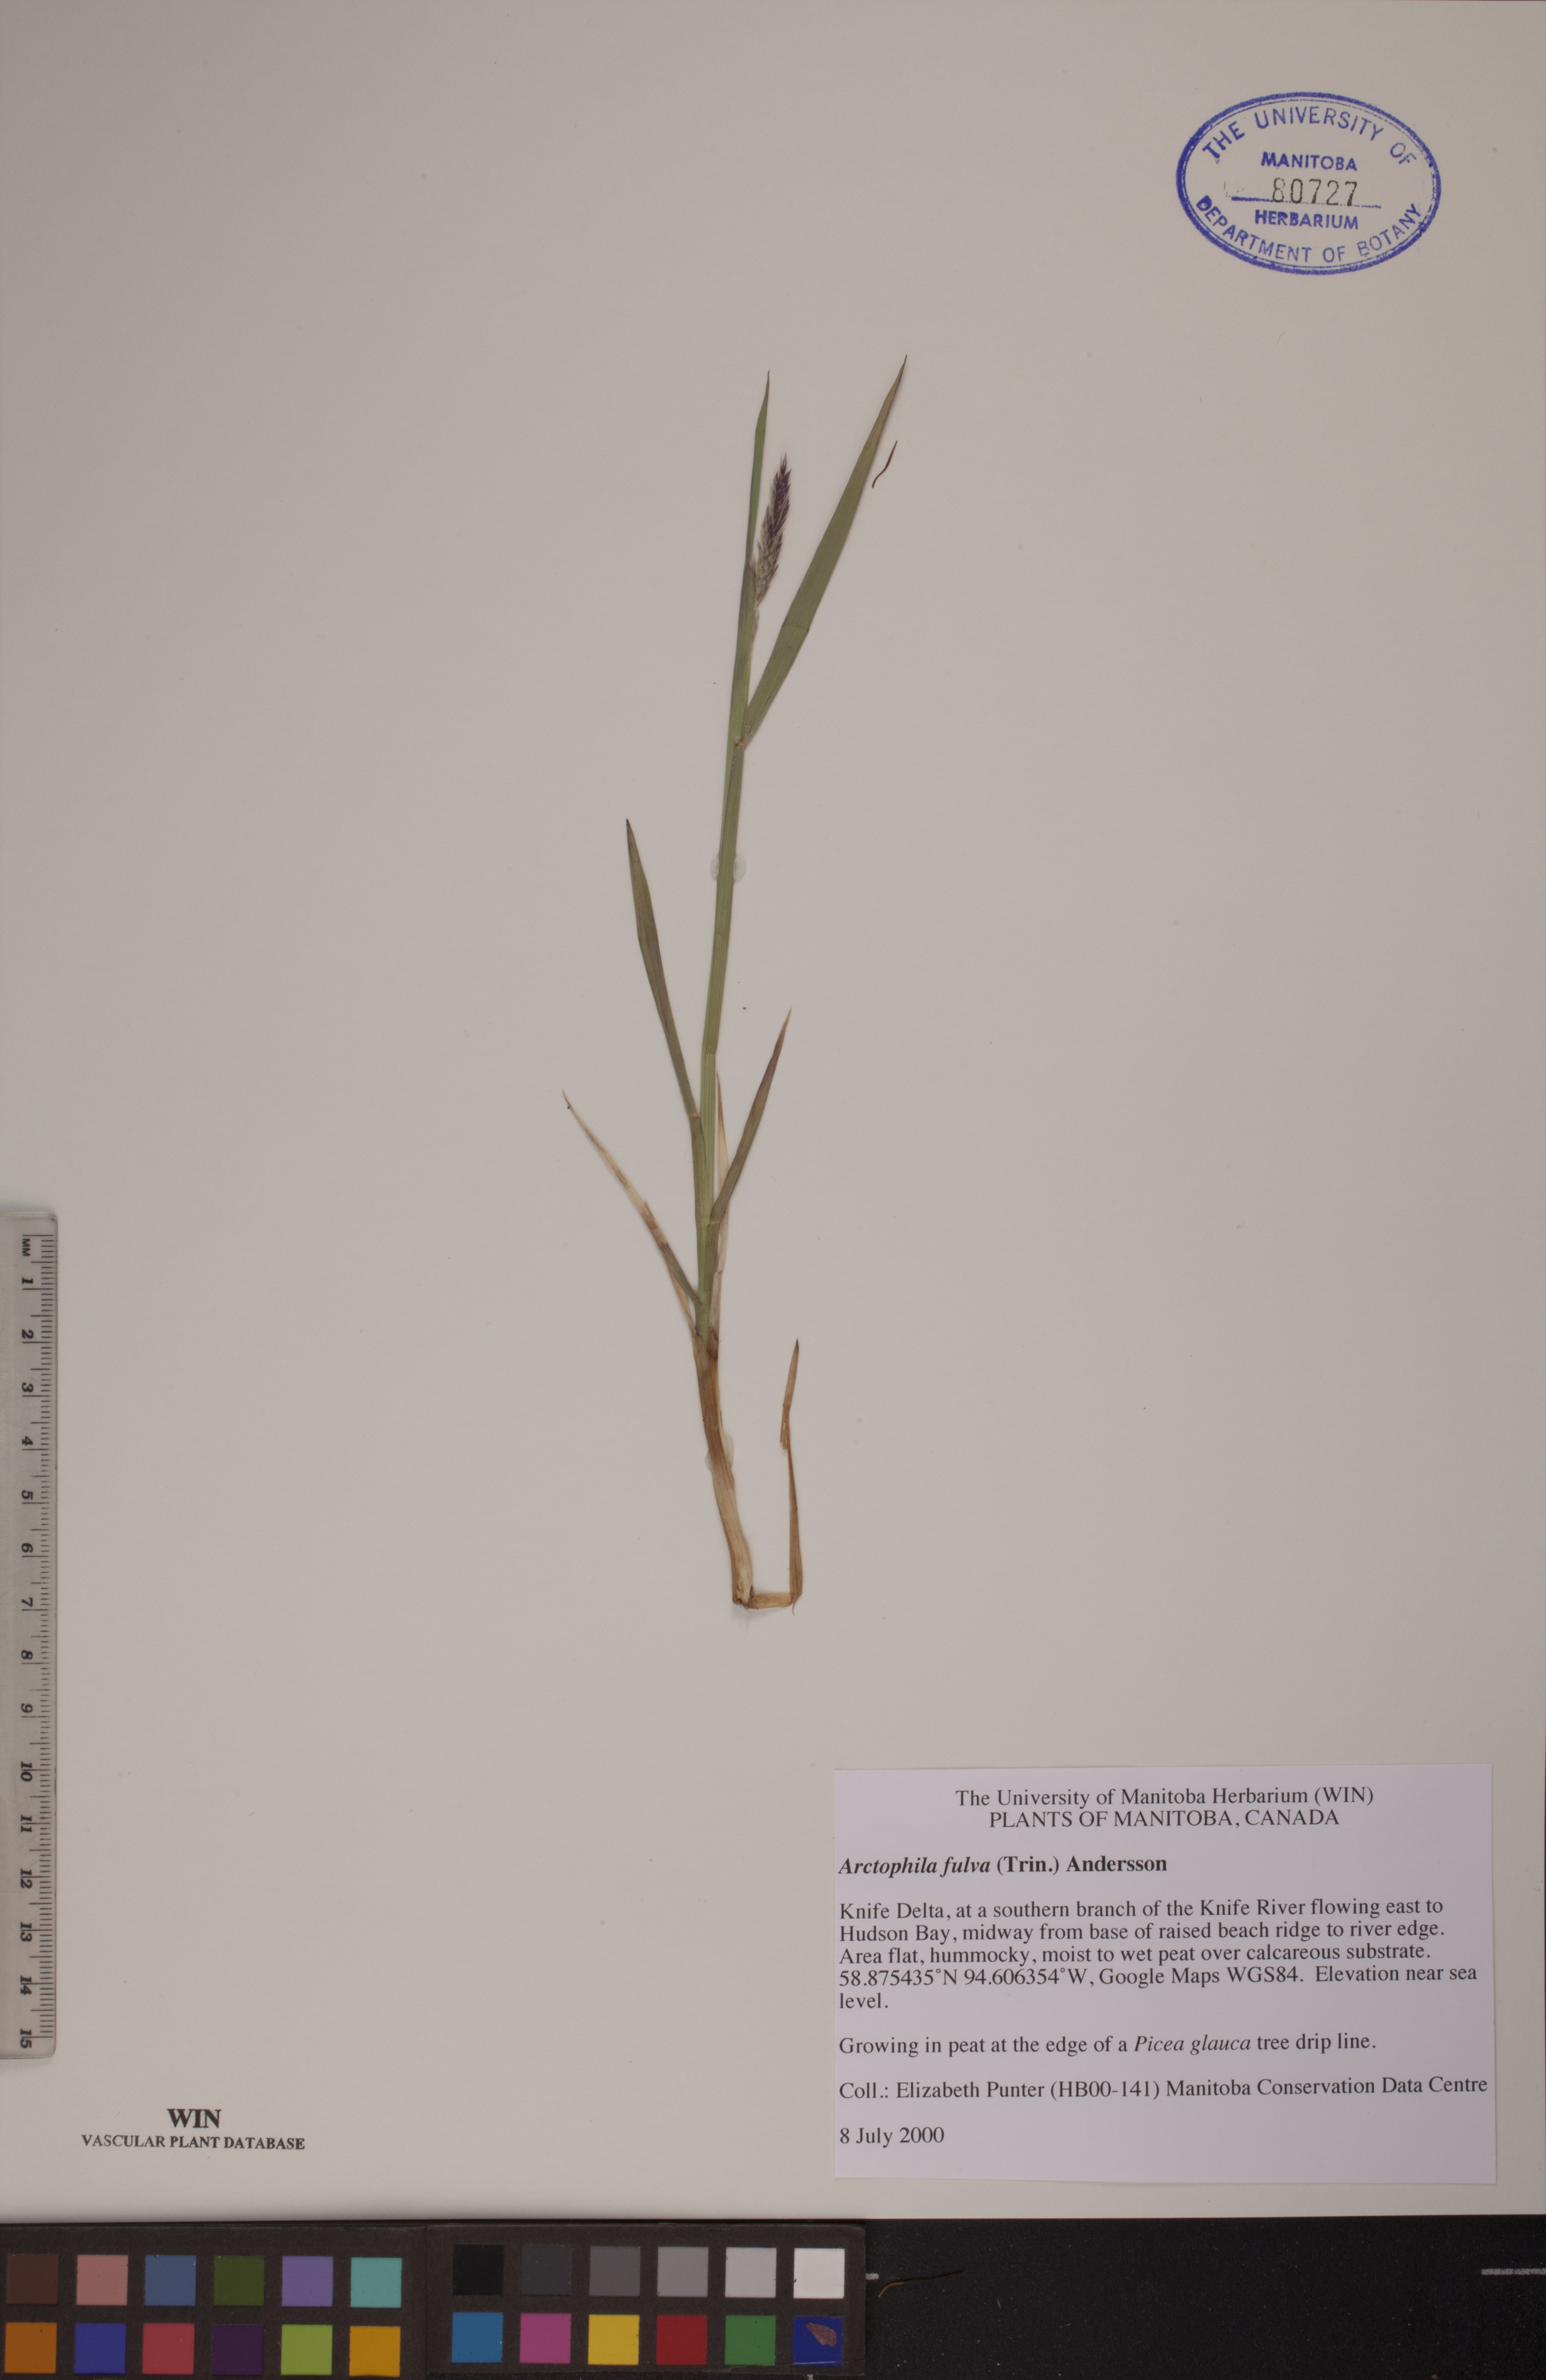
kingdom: Plantae
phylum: Tracheophyta
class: Liliopsida
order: Poales
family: Poaceae
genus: Dupontia
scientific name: Dupontia fulva
